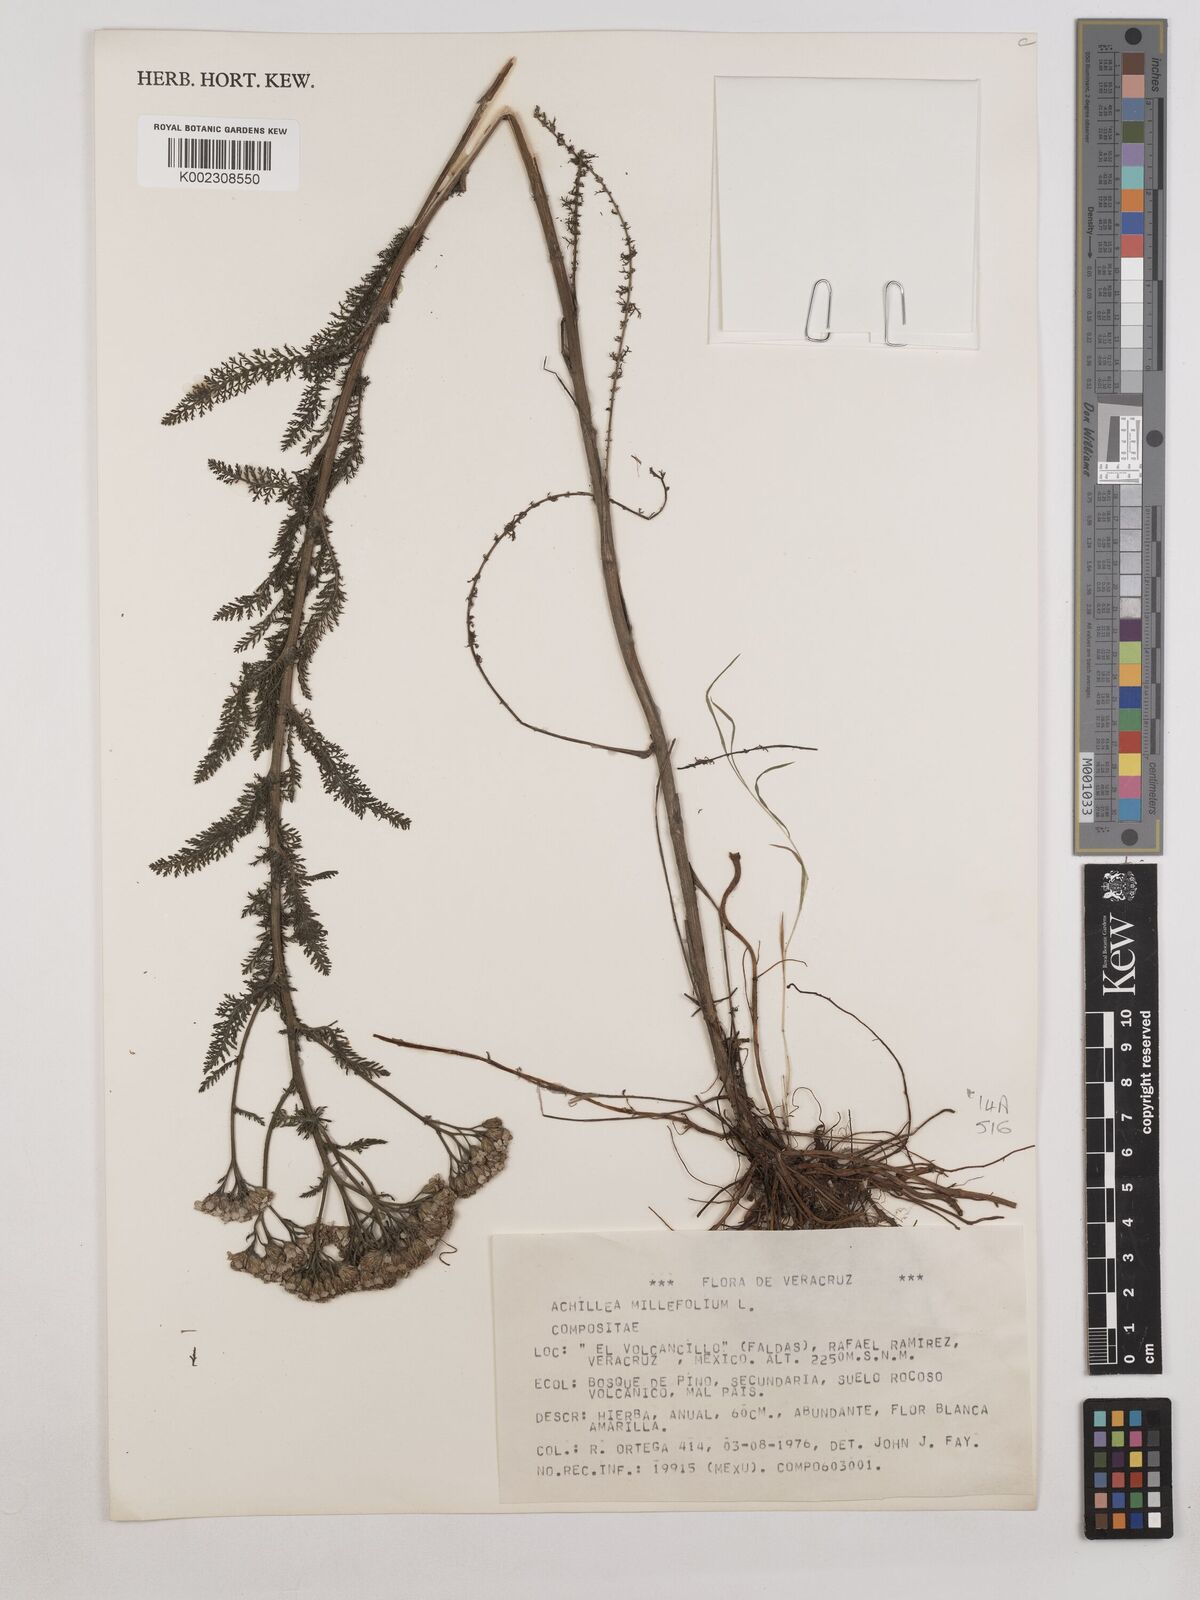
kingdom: Plantae
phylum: Tracheophyta
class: Magnoliopsida
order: Asterales
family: Asteraceae
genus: Achillea
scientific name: Achillea millefolium
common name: Yarrow
